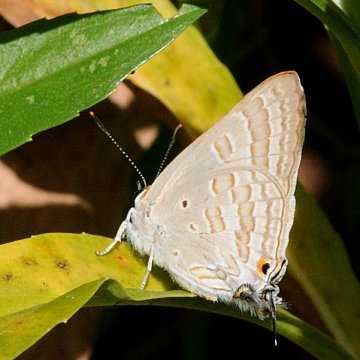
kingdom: Animalia
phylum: Arthropoda
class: Insecta
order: Lepidoptera
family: Lycaenidae
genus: Deudorix
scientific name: Deudorix antalus
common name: Brown Playboy
